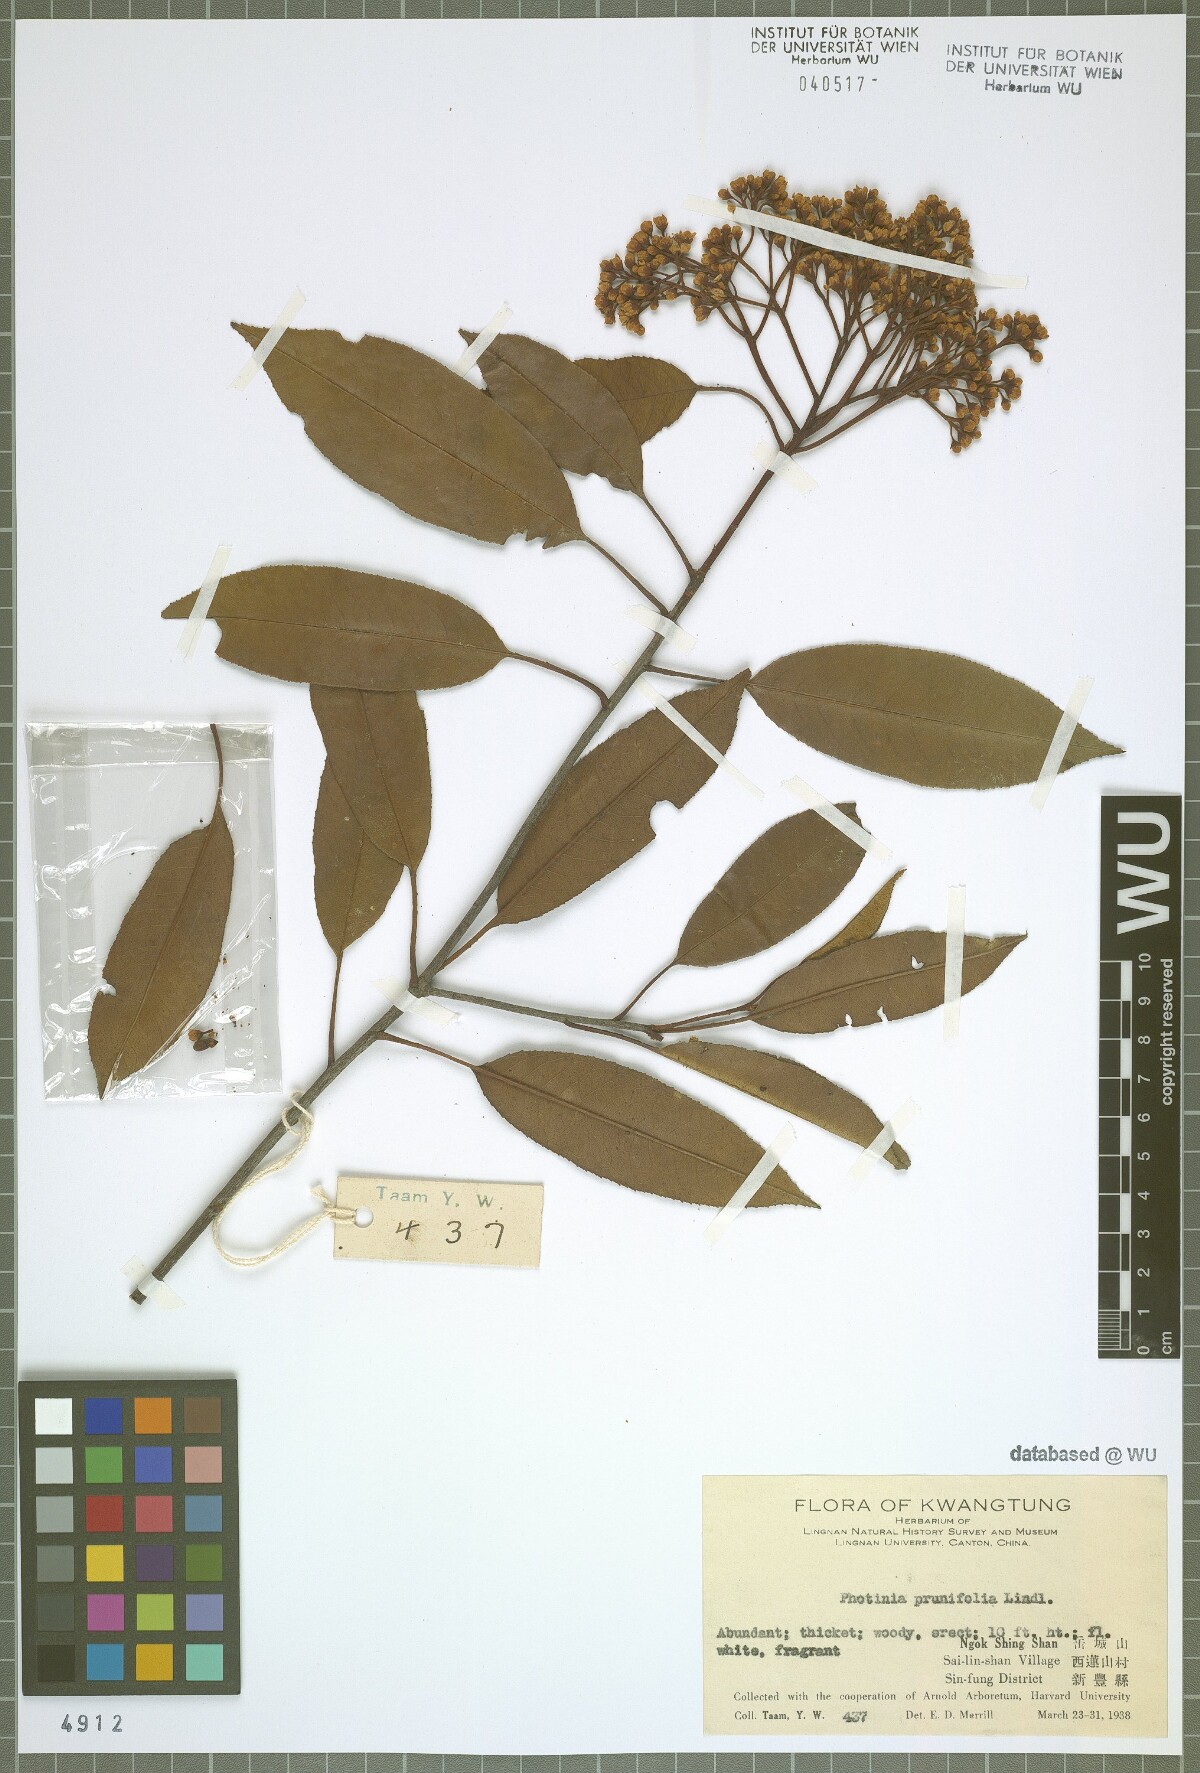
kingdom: Plantae
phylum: Tracheophyta
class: Magnoliopsida
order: Rosales
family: Rosaceae
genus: Photinia
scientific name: Photinia prunifolia
